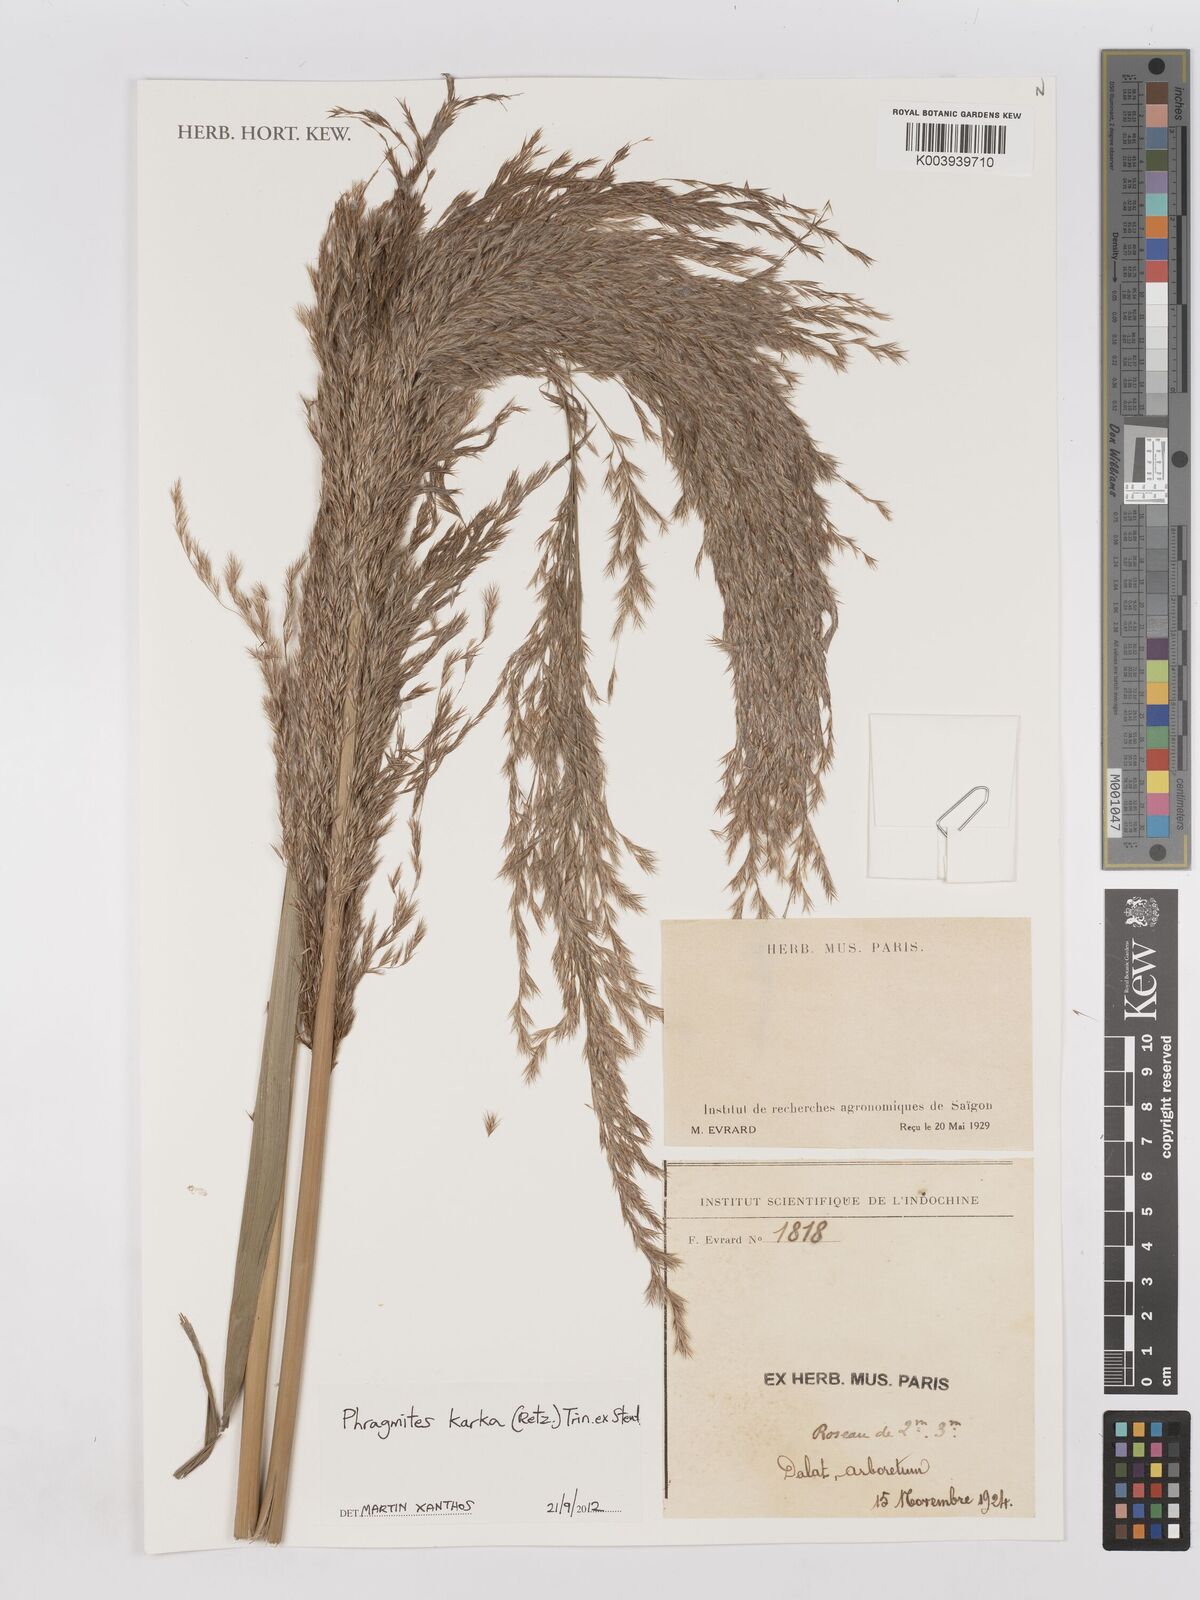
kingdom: Plantae
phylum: Tracheophyta
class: Liliopsida
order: Poales
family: Poaceae
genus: Phragmites
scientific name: Phragmites australis
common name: Common reed
